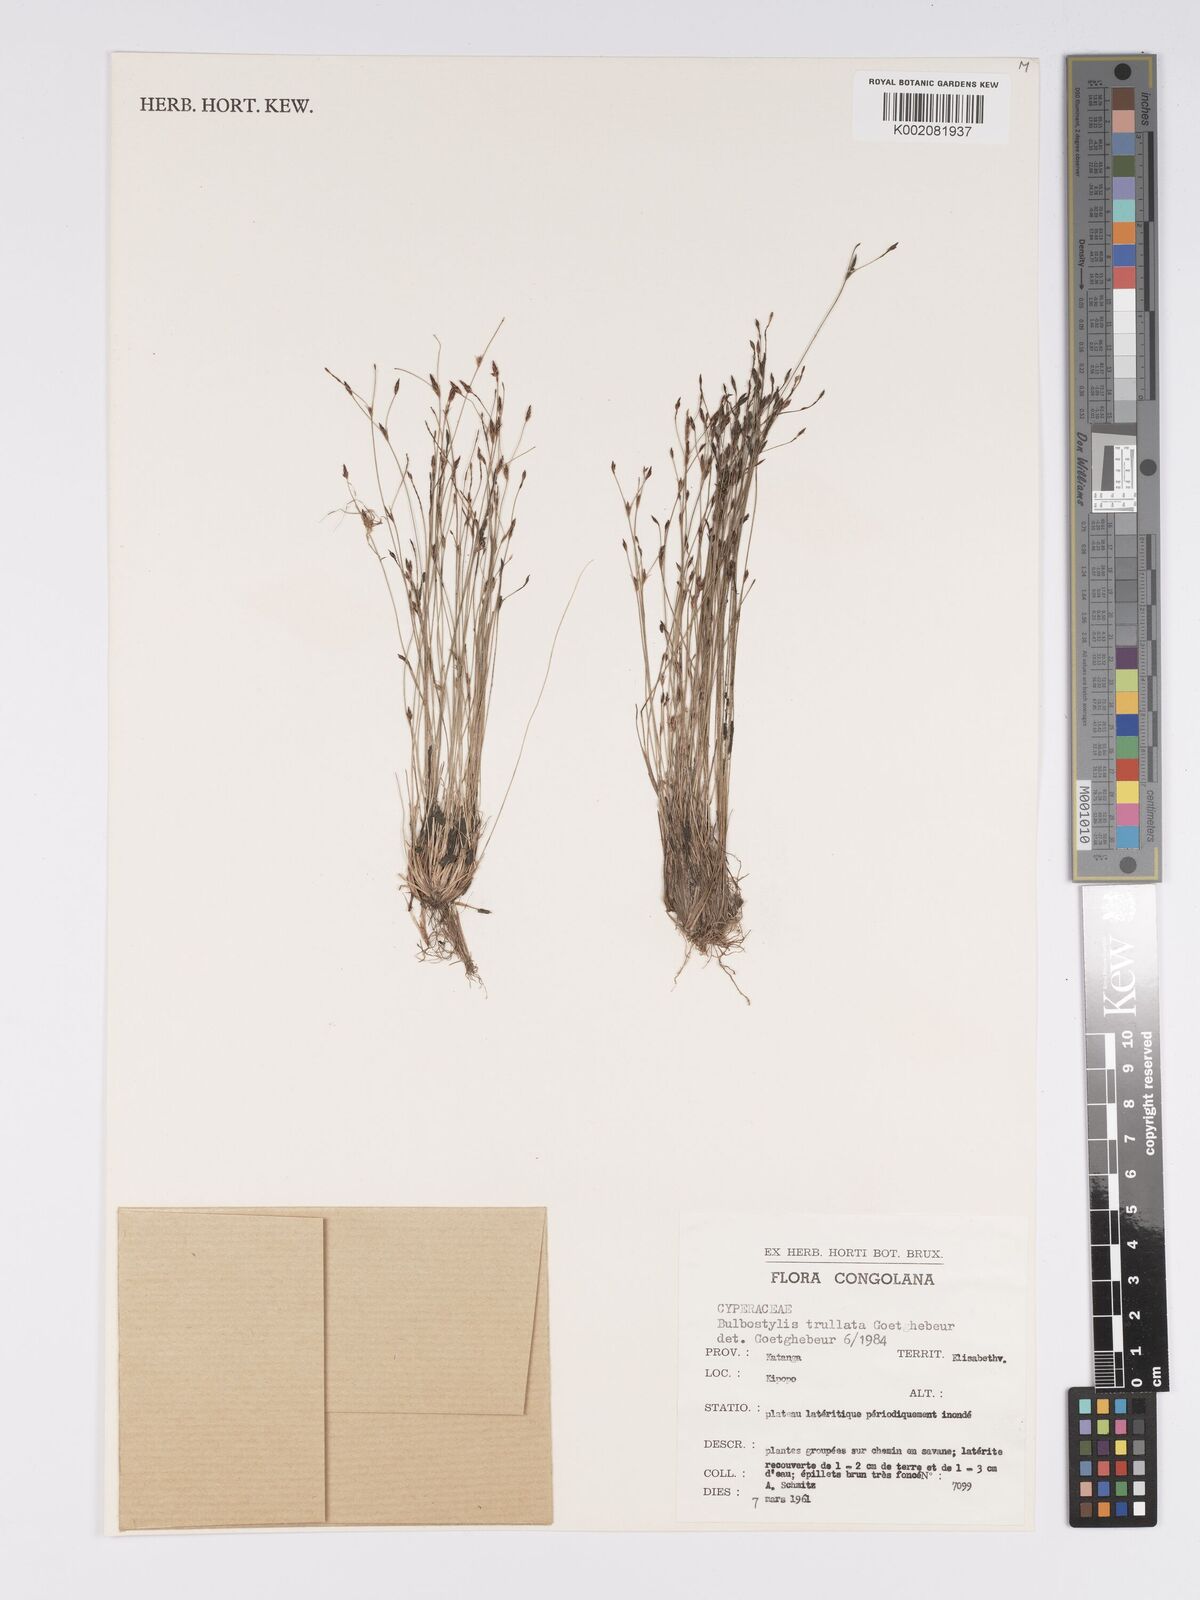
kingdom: Plantae
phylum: Tracheophyta
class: Liliopsida
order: Poales
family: Cyperaceae
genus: Bulbostylis
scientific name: Bulbostylis trullata
